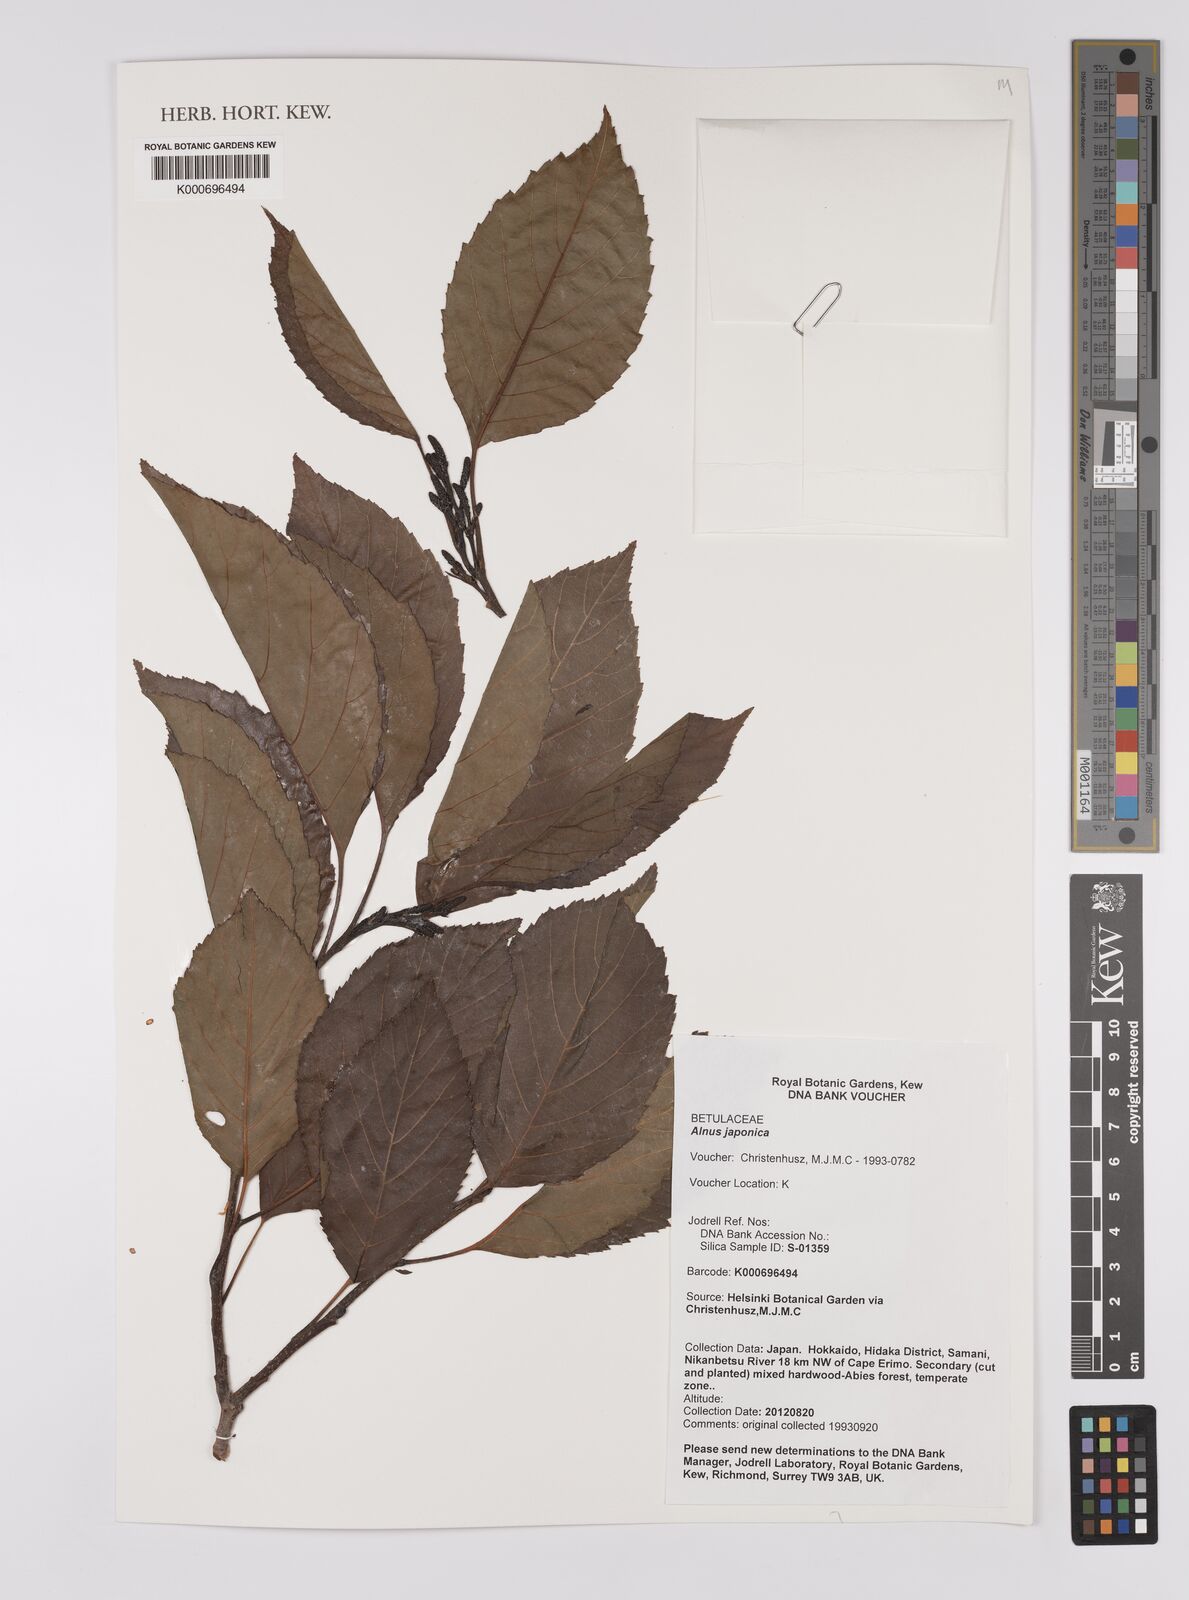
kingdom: Plantae
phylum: Tracheophyta
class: Magnoliopsida
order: Fagales
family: Betulaceae
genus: Alnus
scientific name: Alnus
